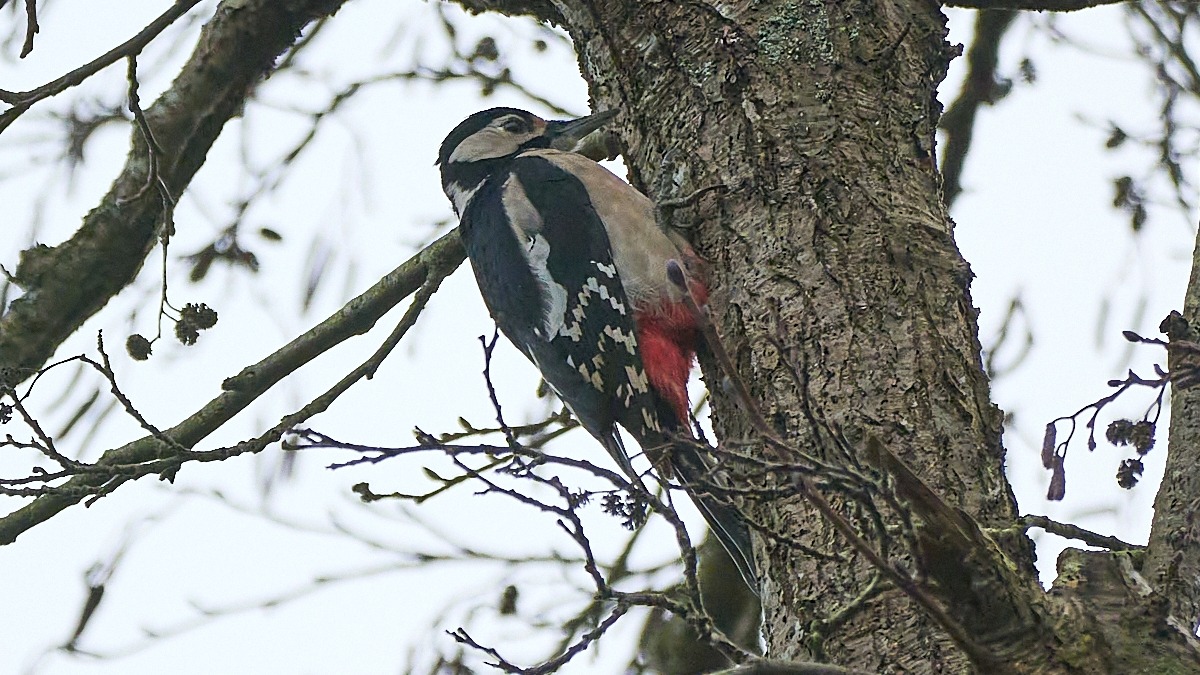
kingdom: Animalia
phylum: Chordata
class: Aves
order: Piciformes
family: Picidae
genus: Dendrocopos
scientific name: Dendrocopos major
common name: Stor flagspætte
